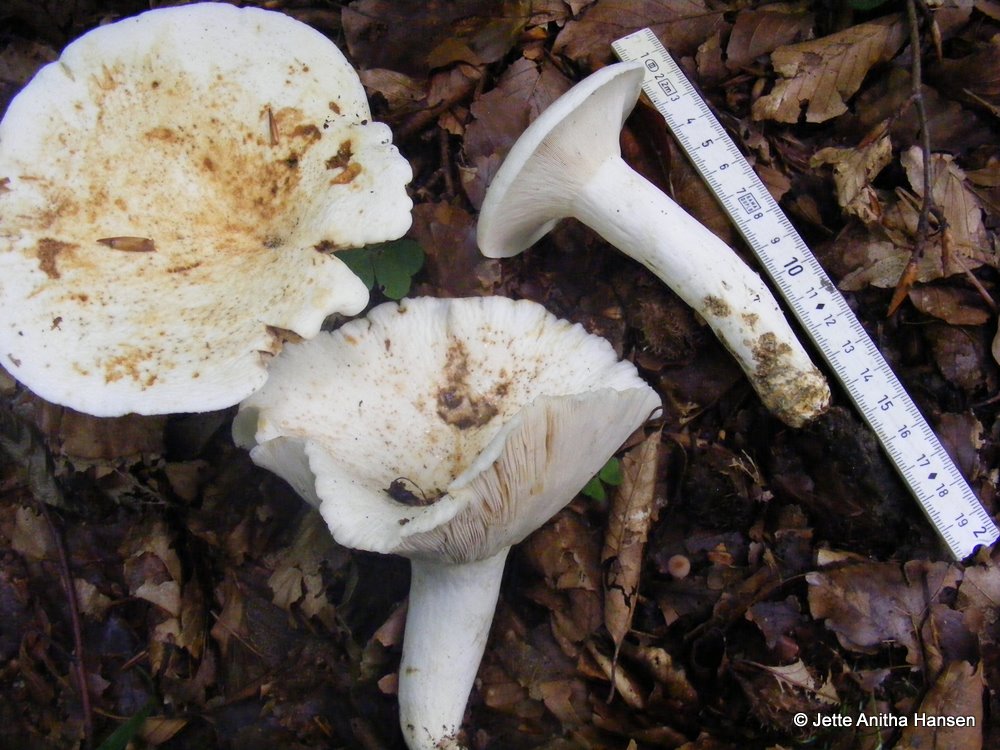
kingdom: Fungi
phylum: Basidiomycota
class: Agaricomycetes
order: Russulales
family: Russulaceae
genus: Lactifluus
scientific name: Lactifluus piperatus
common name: peber-mælkehat
